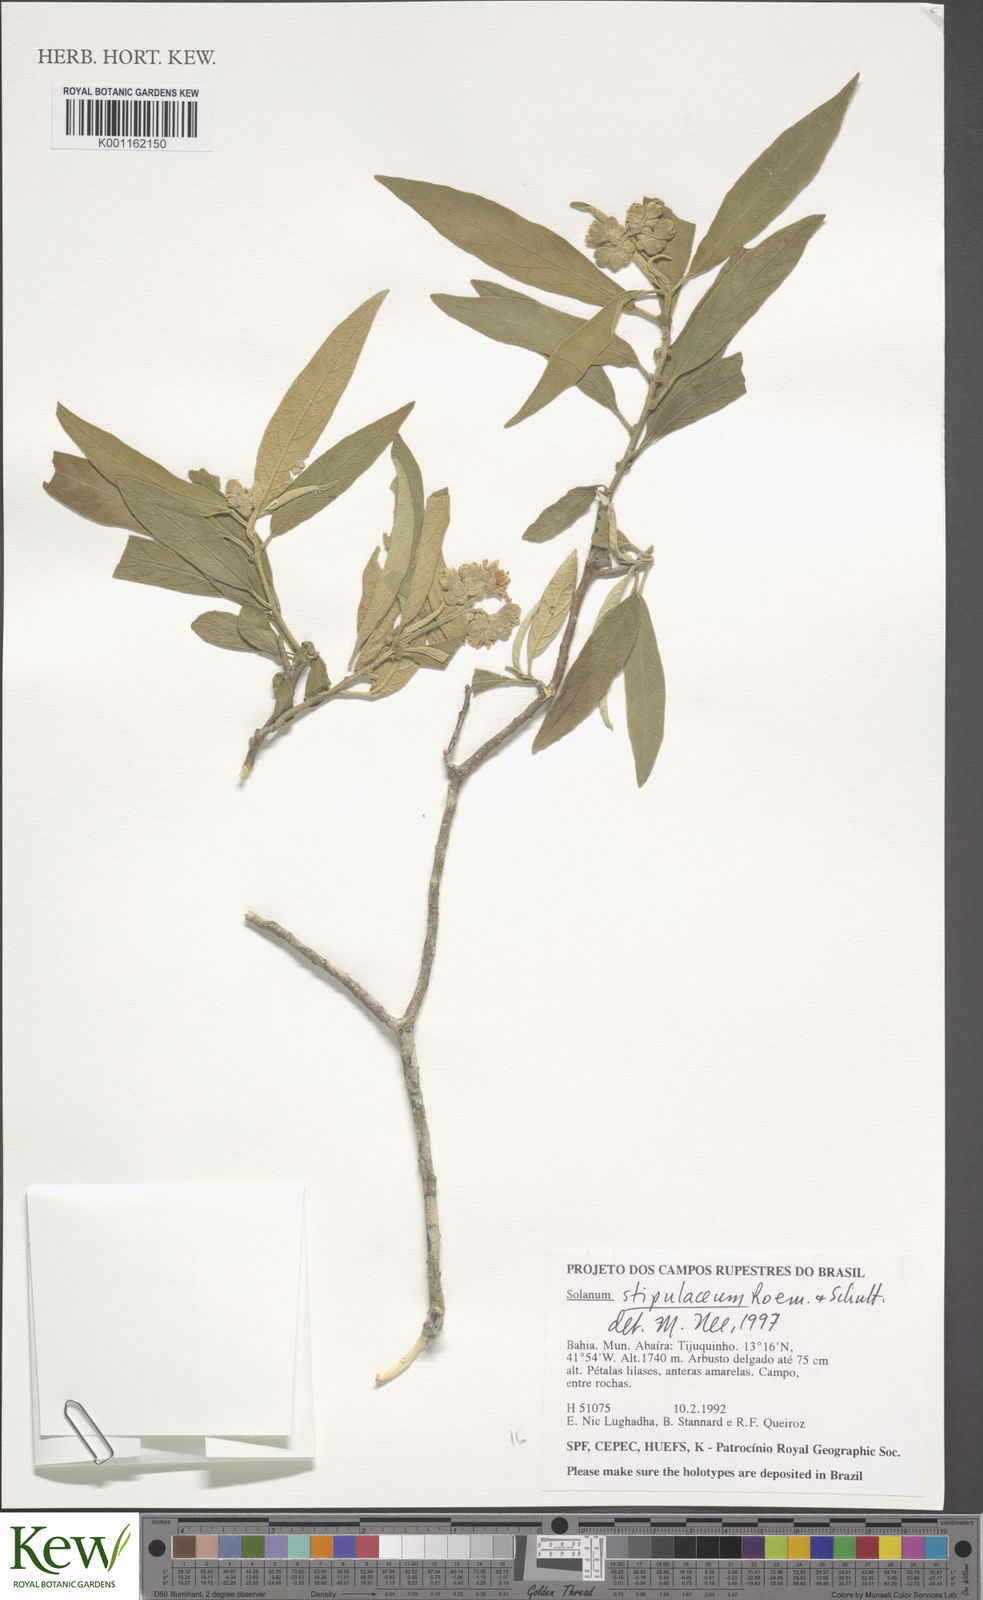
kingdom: Plantae
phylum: Tracheophyta
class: Magnoliopsida
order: Solanales
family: Solanaceae
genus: Solanum
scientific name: Solanum stipulaceum
